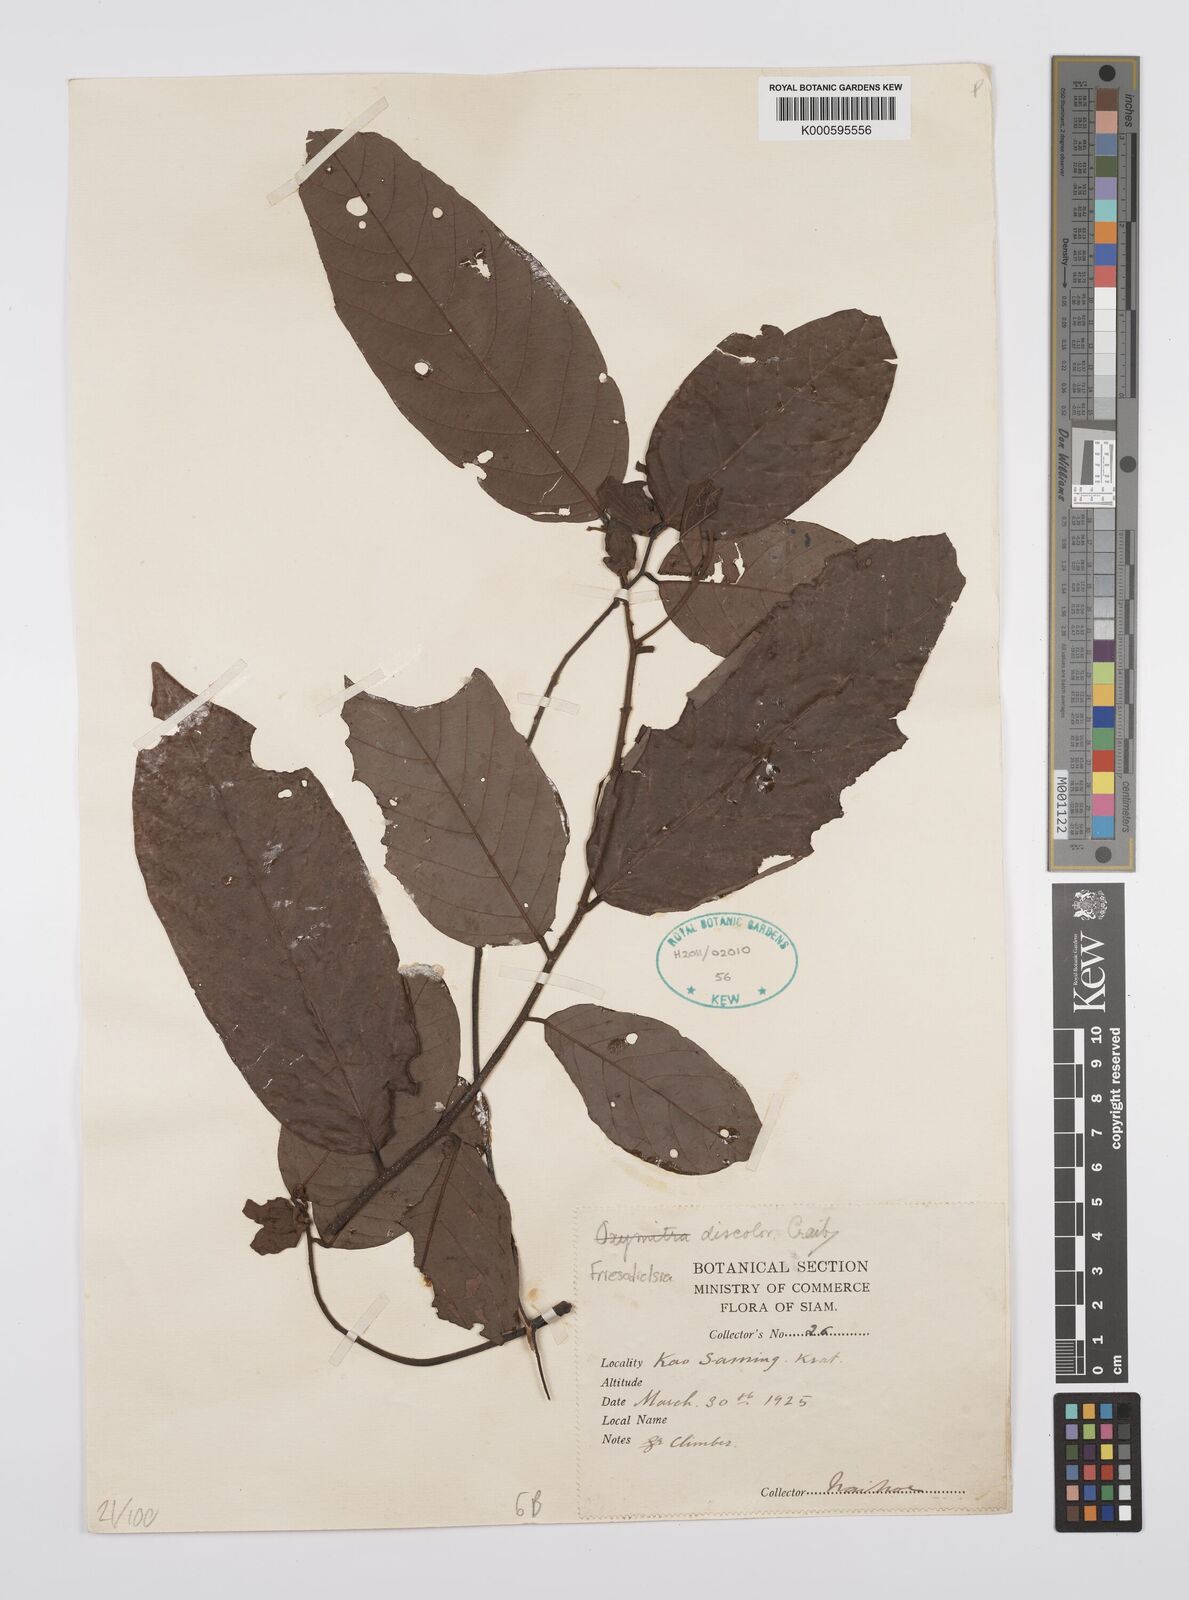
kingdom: Plantae
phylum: Tracheophyta
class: Magnoliopsida
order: Magnoliales
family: Annonaceae
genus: Friesodielsia
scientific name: Friesodielsia discolor
